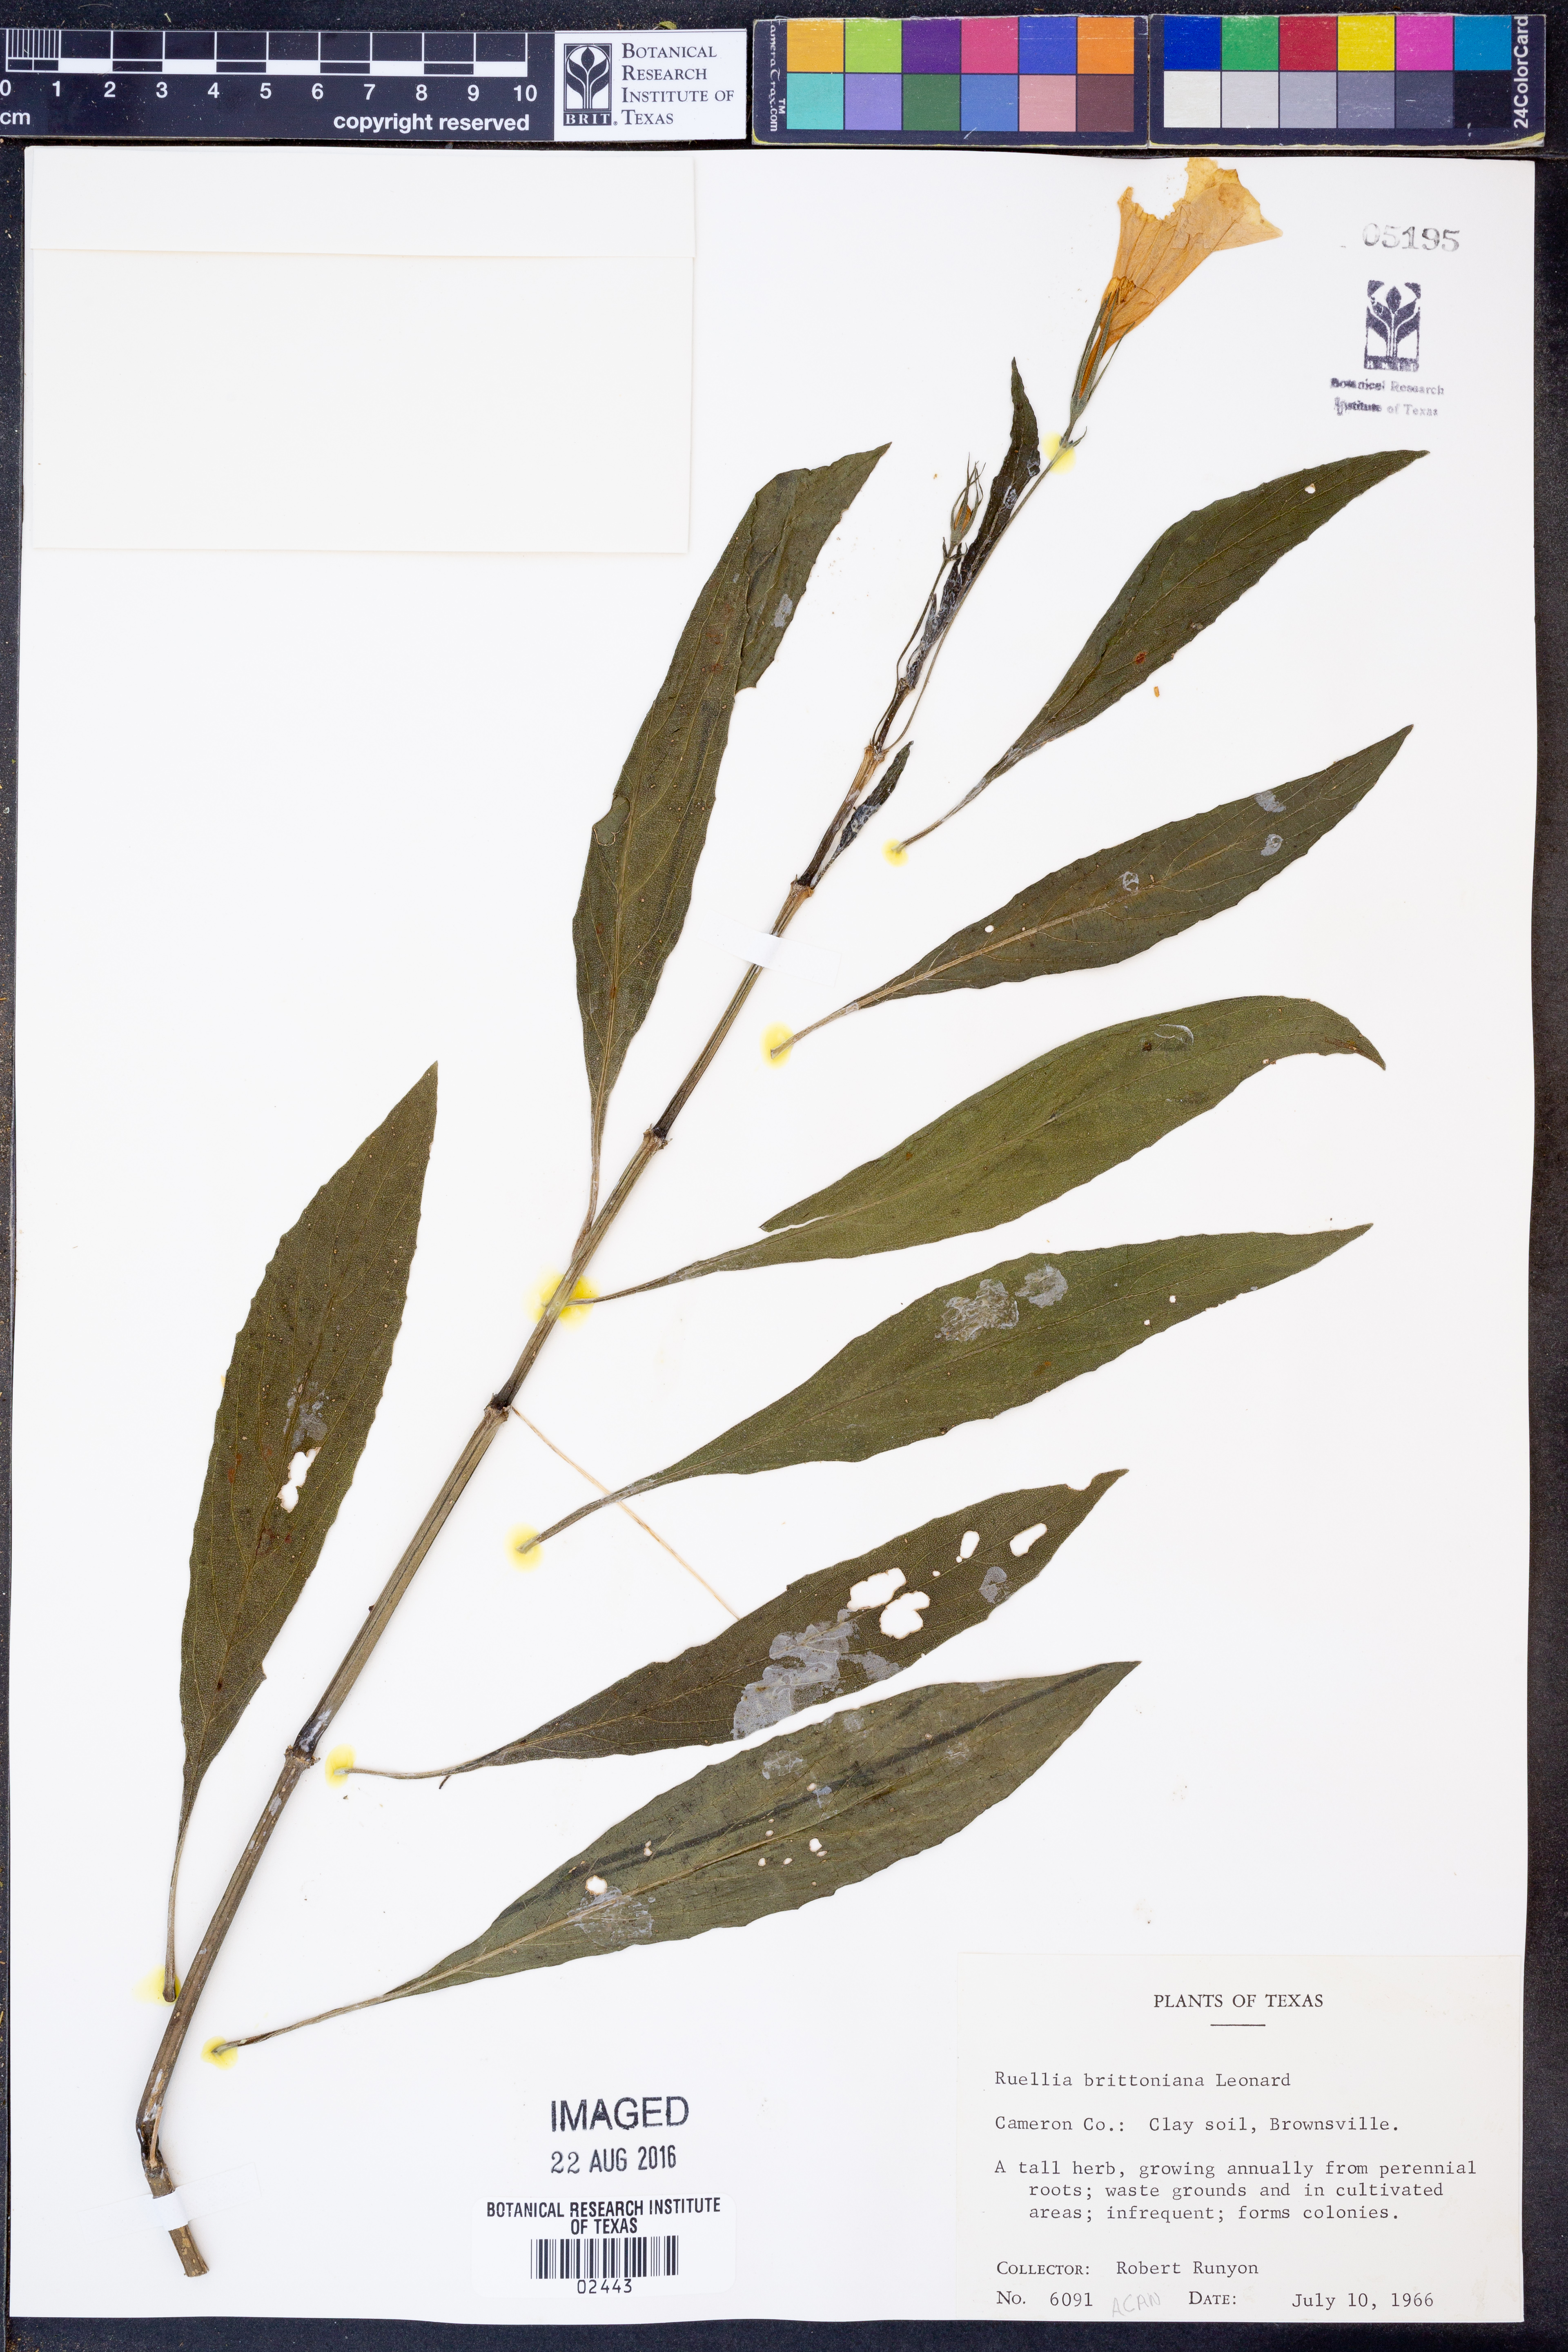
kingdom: Plantae
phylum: Tracheophyta
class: Magnoliopsida
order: Lamiales
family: Acanthaceae
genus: Ruellia
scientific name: Ruellia simplex
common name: Softseed wild petunia
